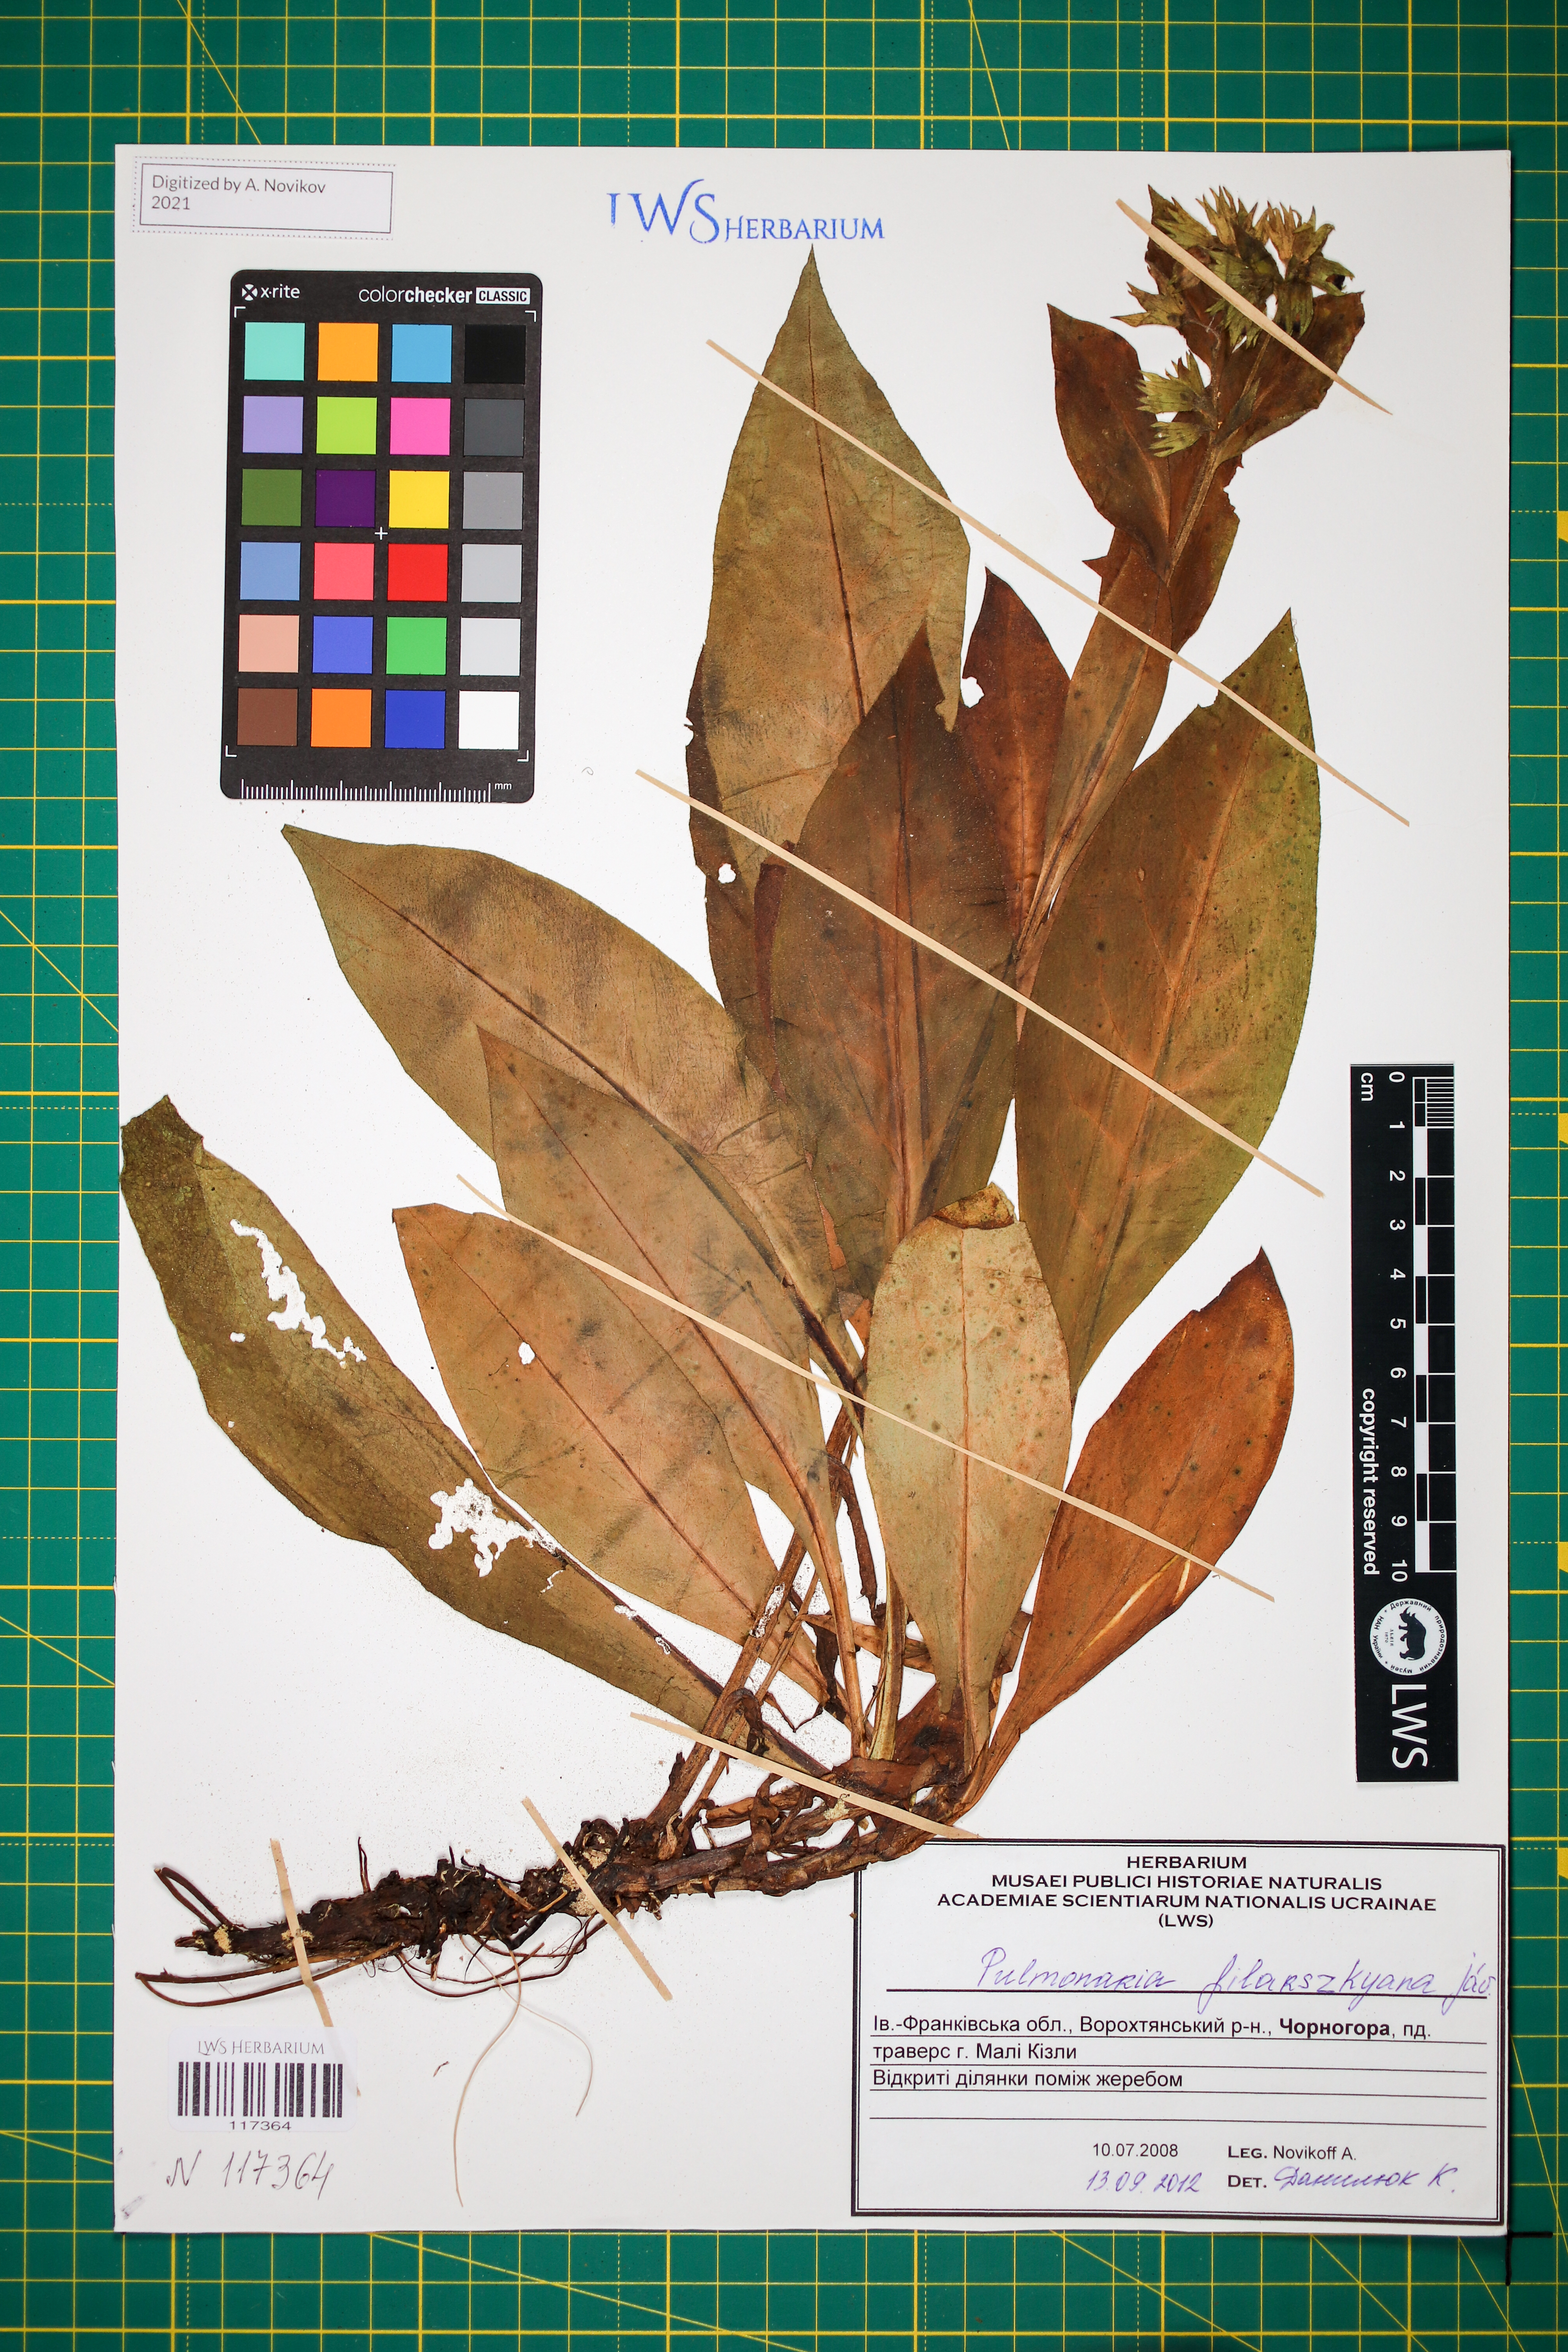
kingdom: Plantae
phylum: Tracheophyta
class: Magnoliopsida
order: Boraginales
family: Boraginaceae
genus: Pulmonaria
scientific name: Pulmonaria filarszkyana
